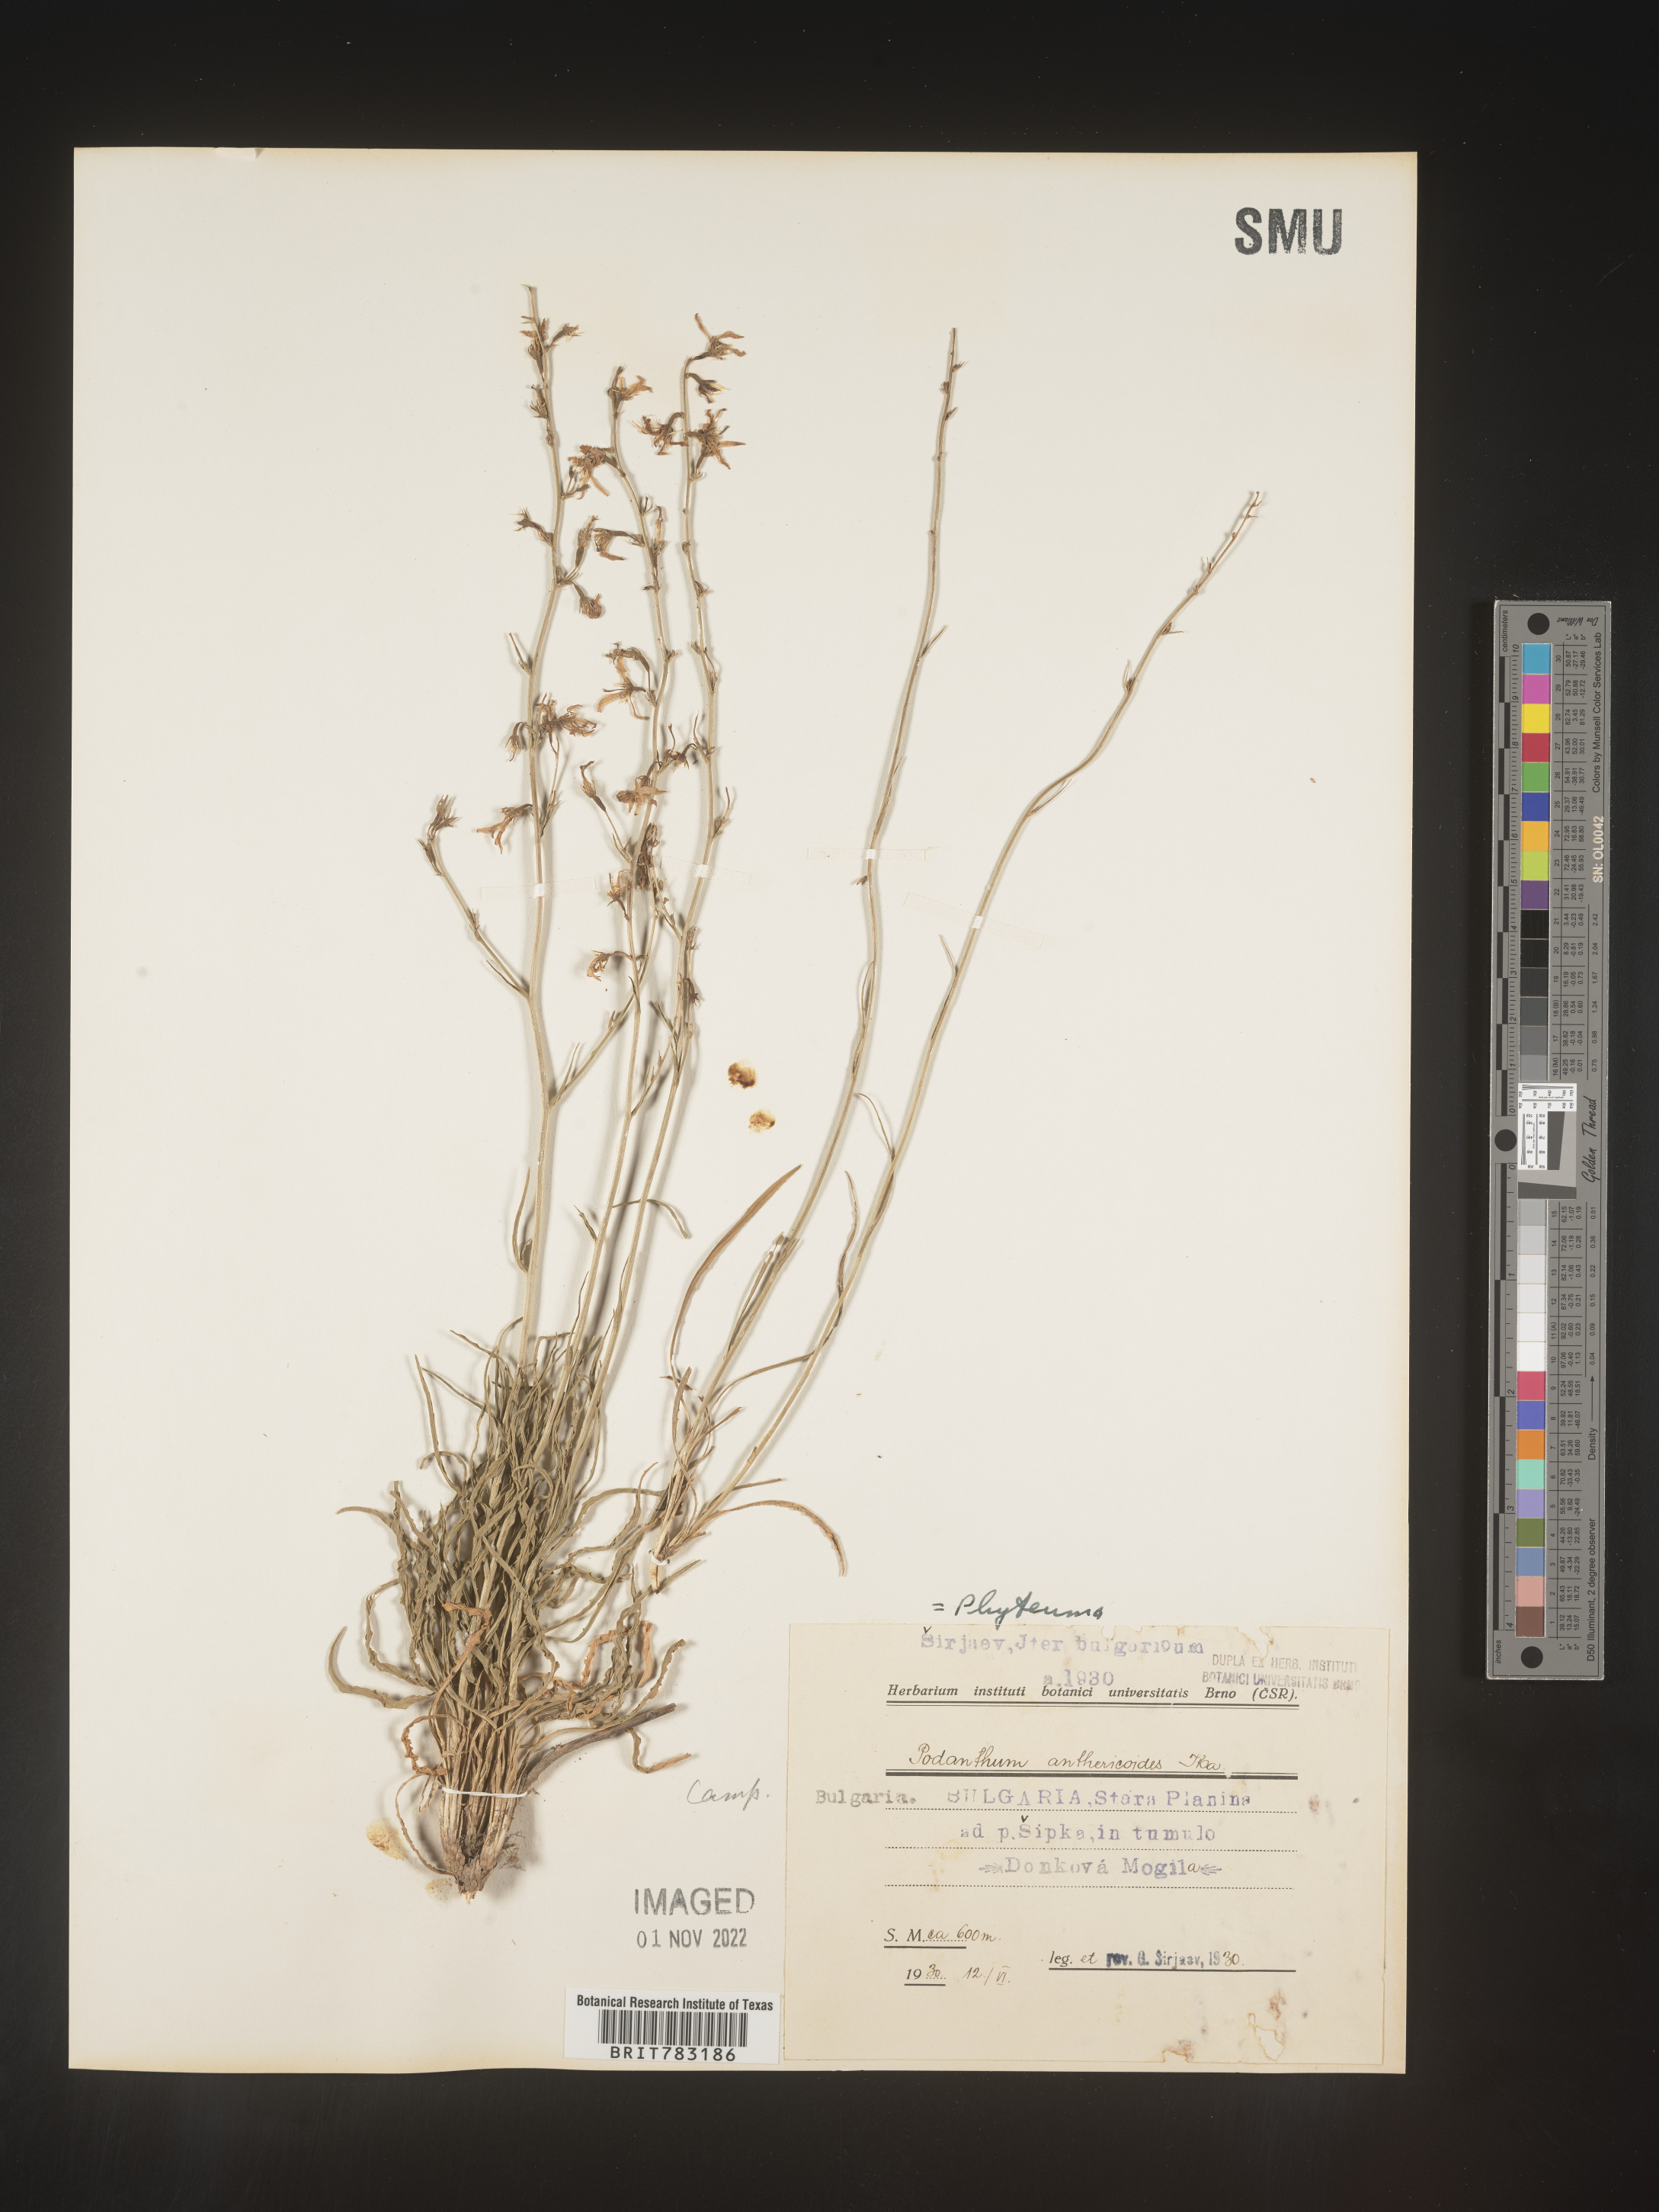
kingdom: Plantae
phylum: Tracheophyta
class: Magnoliopsida
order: Asterales
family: Campanulaceae
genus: Phyteuma
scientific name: Phyteuma
